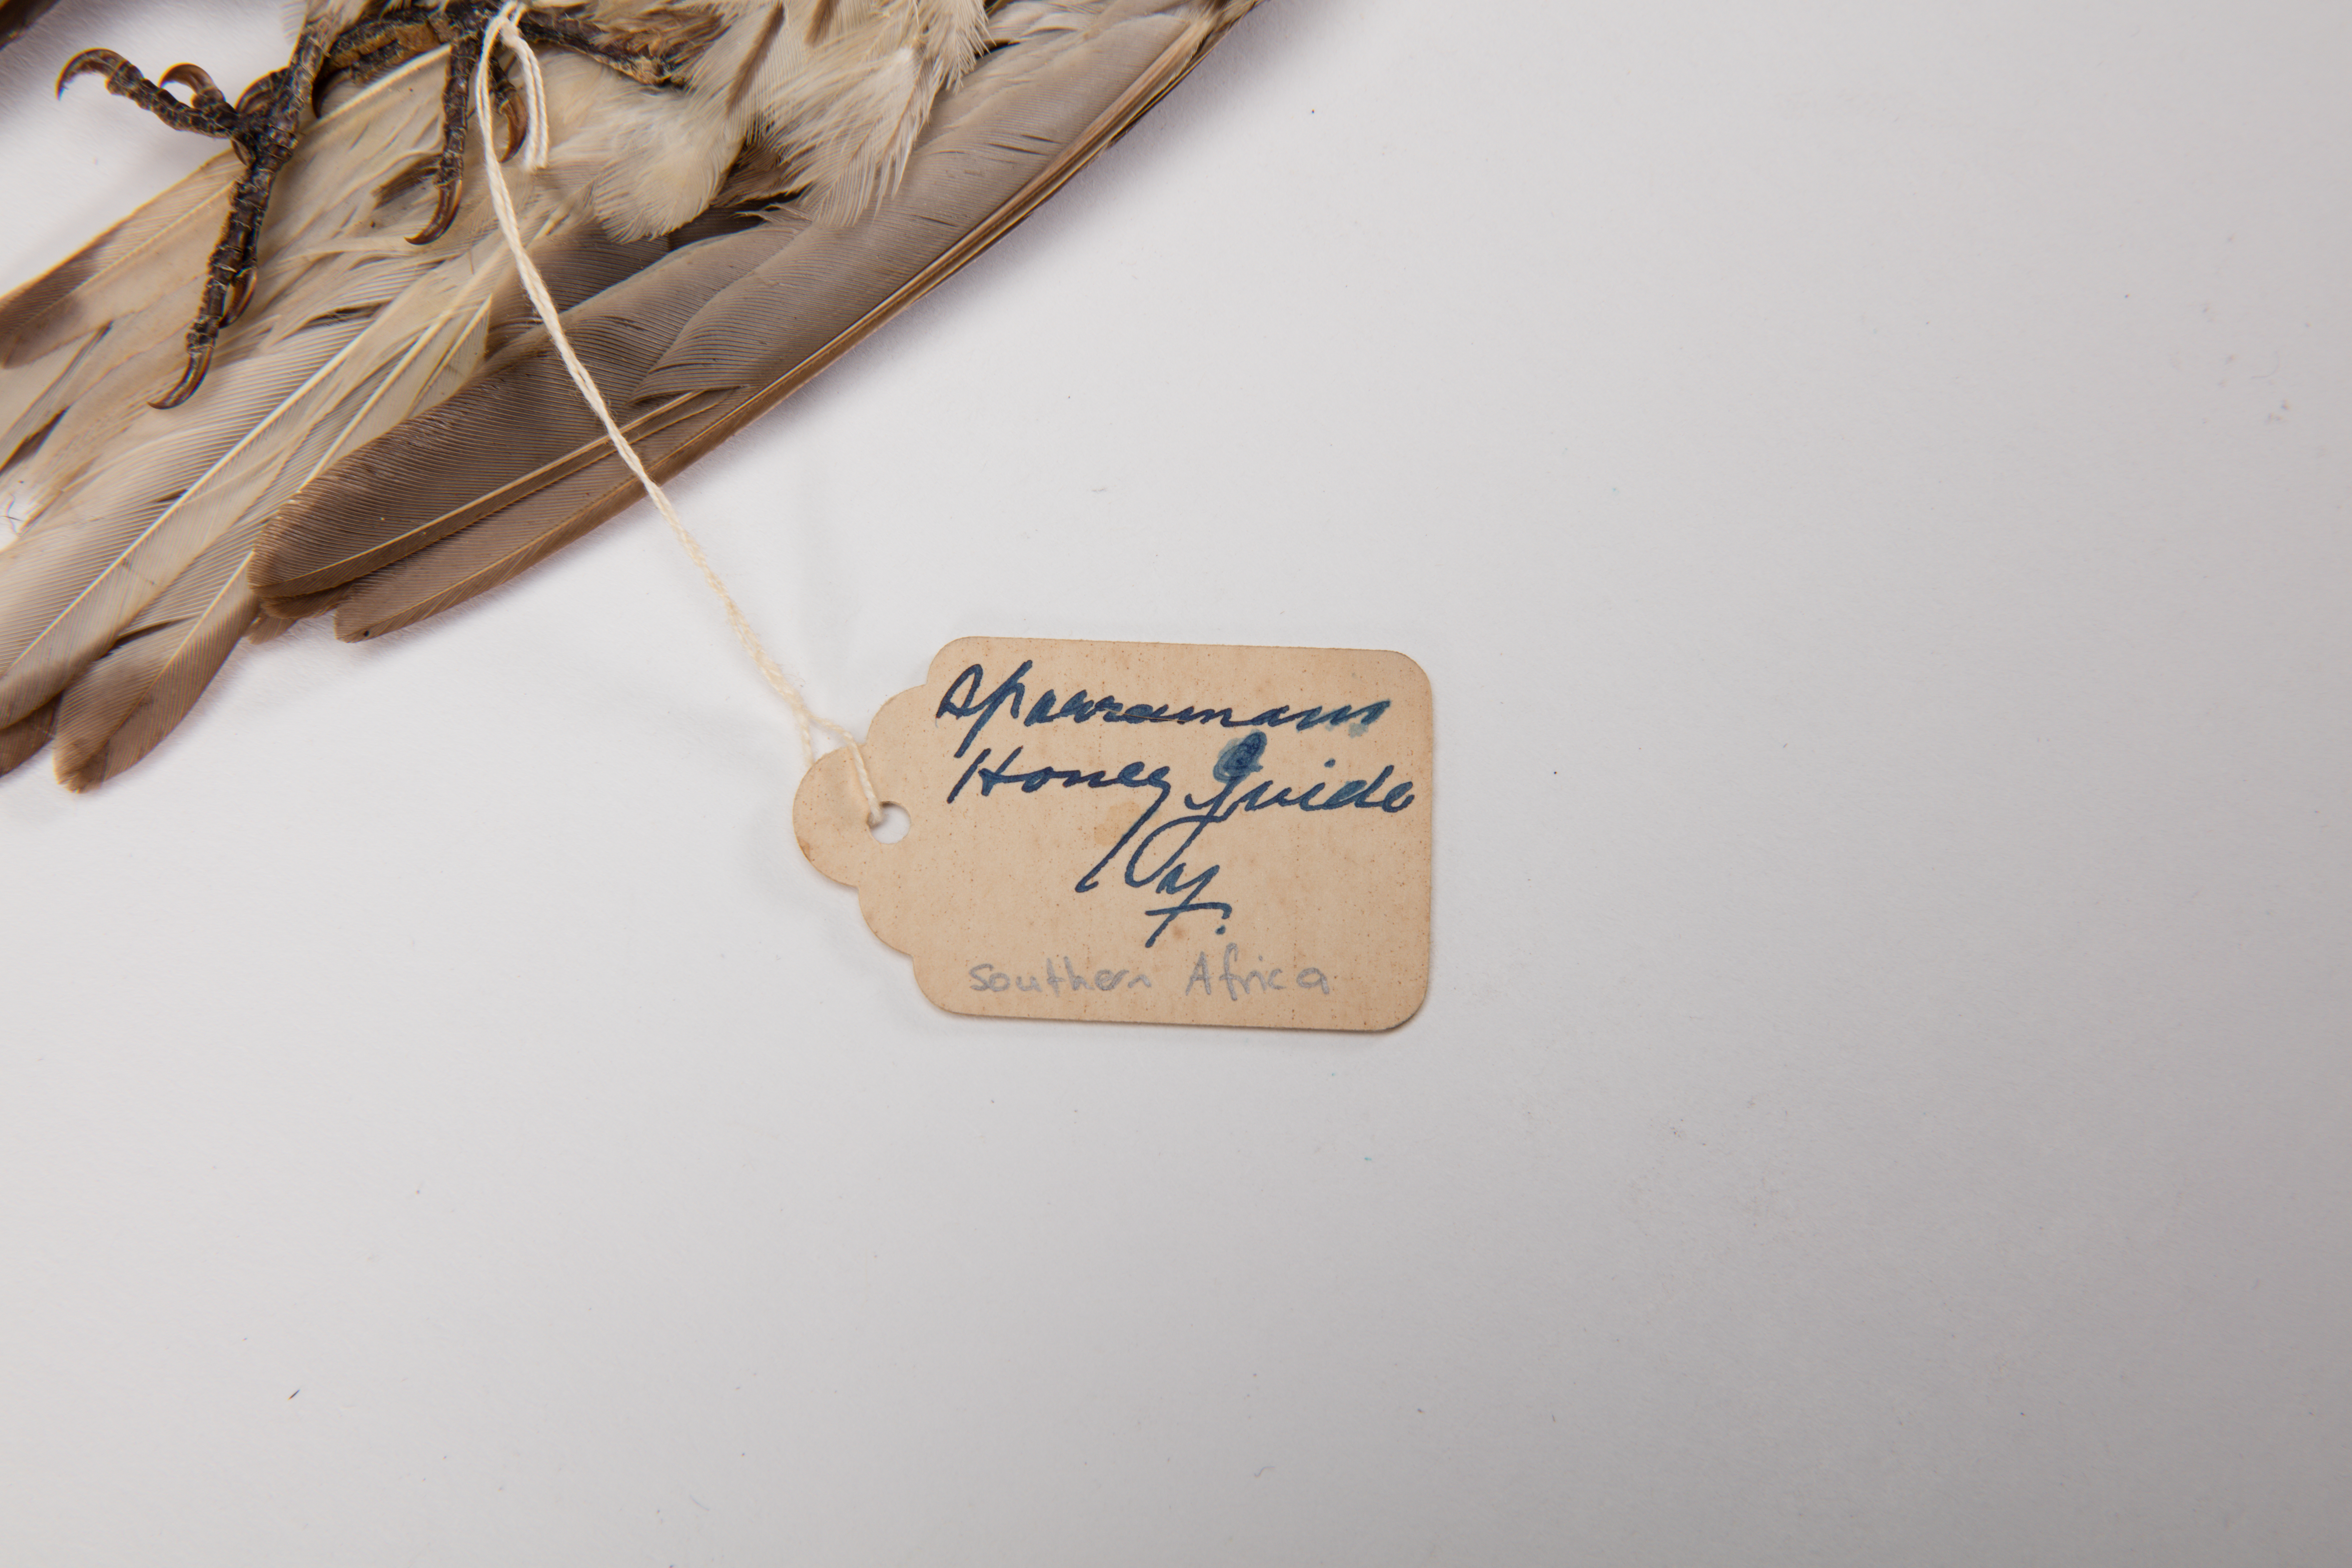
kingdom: Animalia
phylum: Chordata
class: Aves
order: Piciformes
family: Indicatoridae
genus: Indicator
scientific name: Indicator indicator
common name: Greater honeyguide
